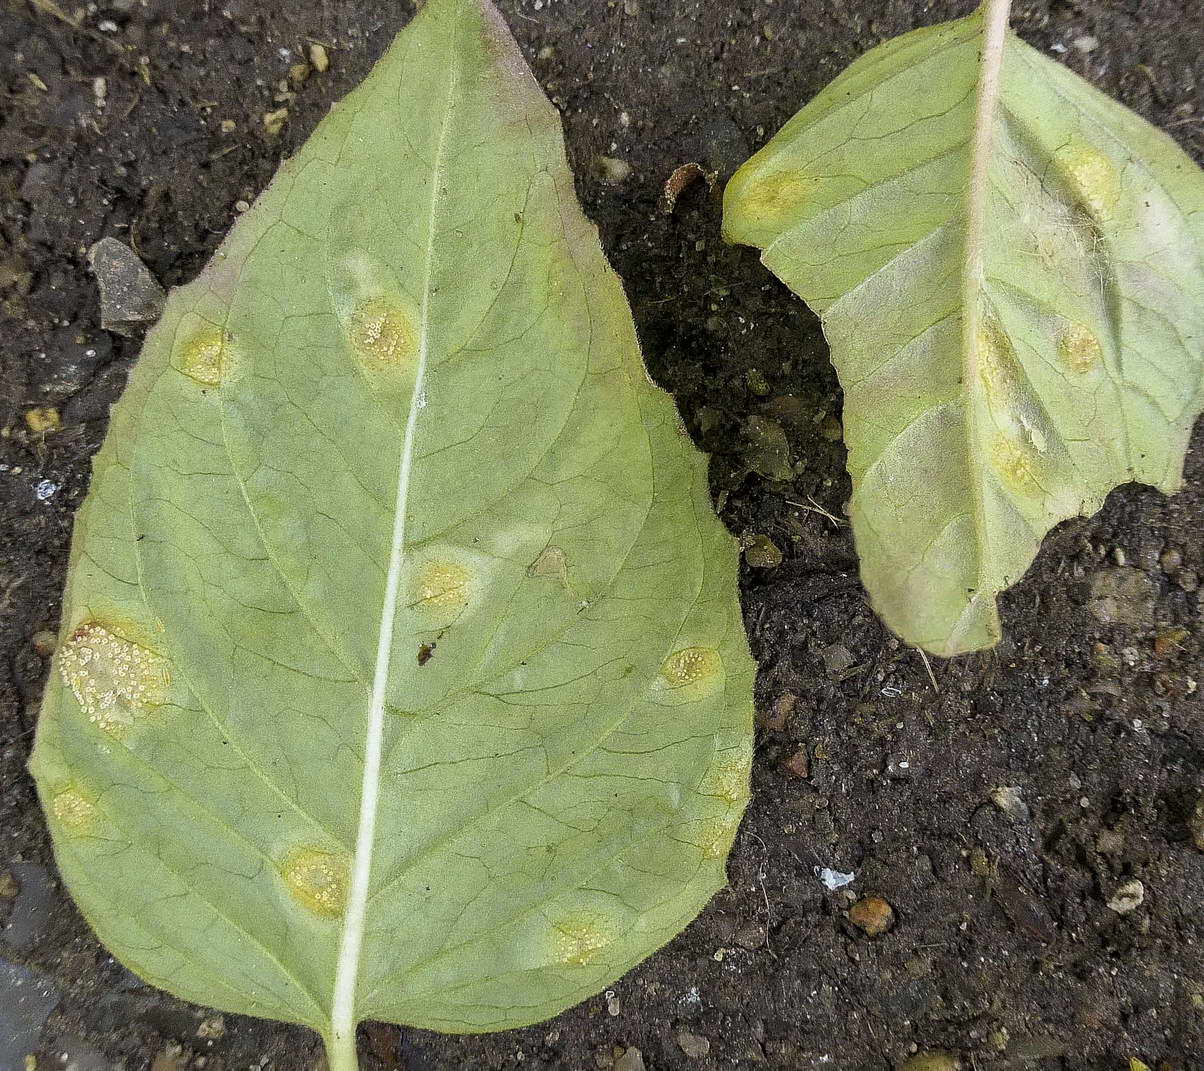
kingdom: Fungi
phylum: Basidiomycota
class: Pucciniomycetes
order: Pucciniales
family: Pucciniastraceae
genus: Pucciniastrum
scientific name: Pucciniastrum circaeae
